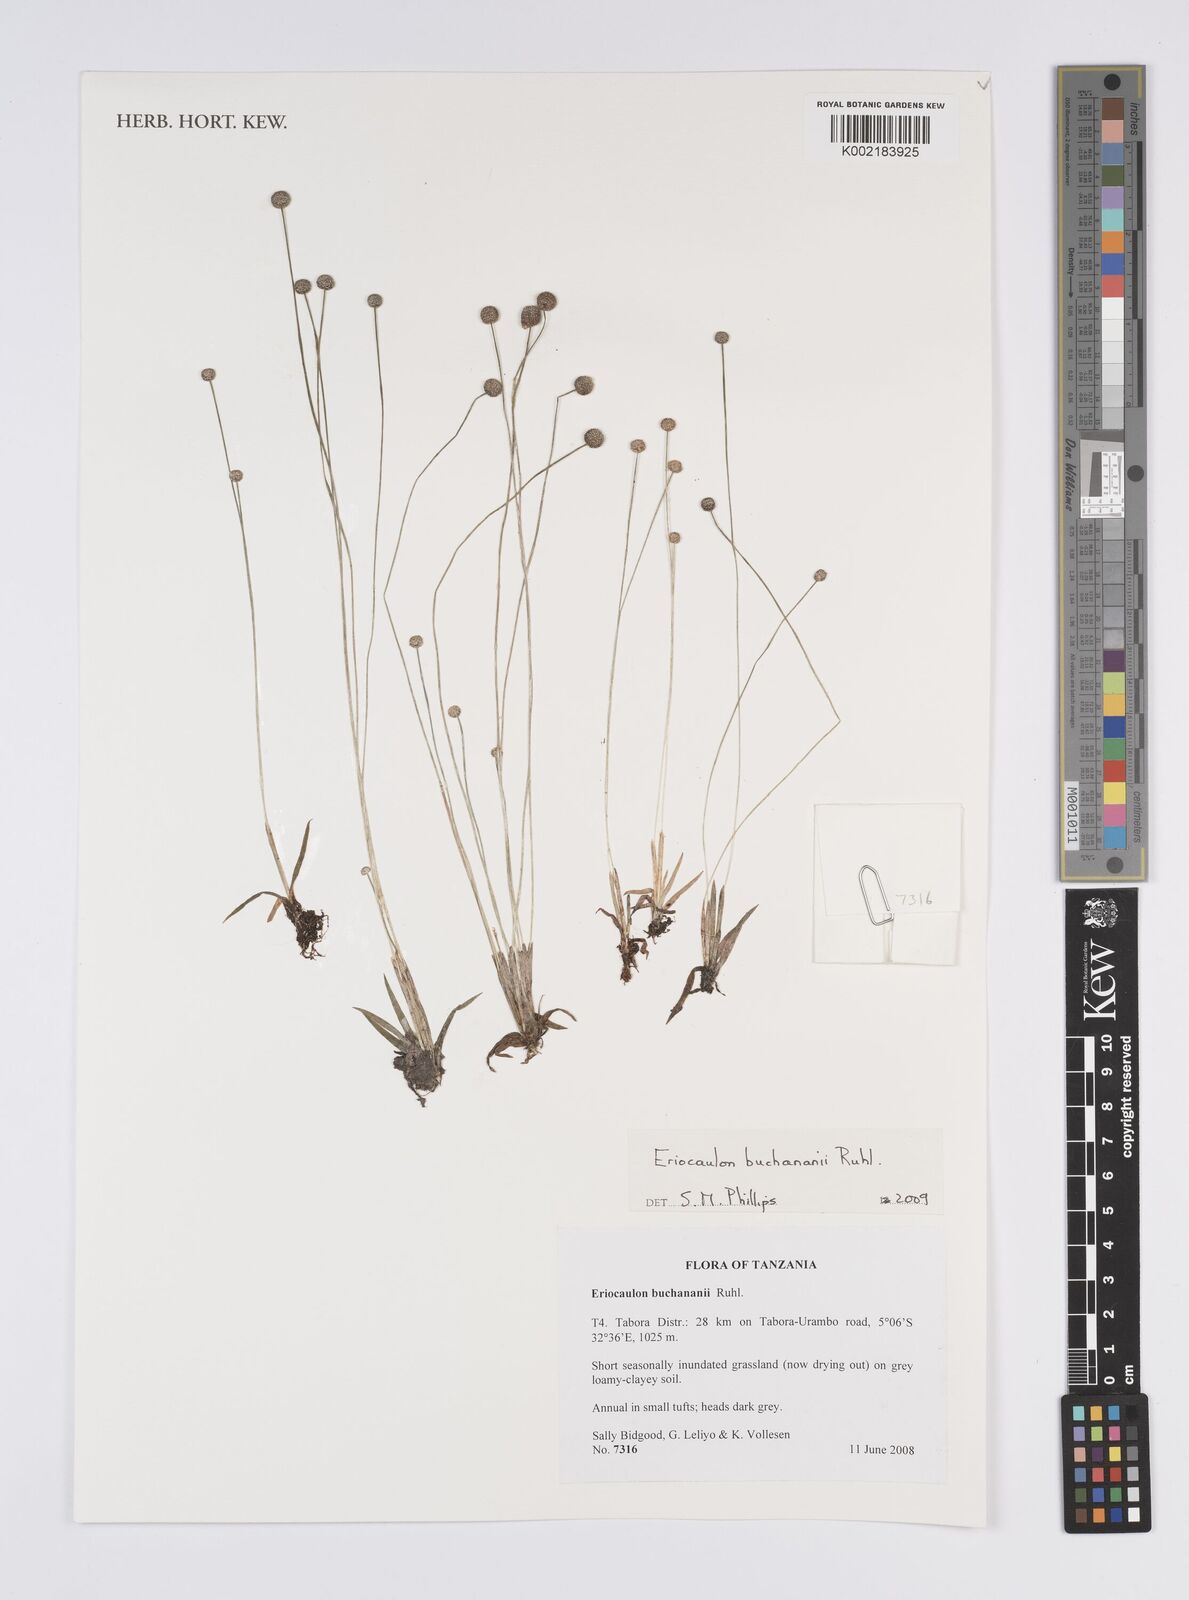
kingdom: Plantae
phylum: Tracheophyta
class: Liliopsida
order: Poales
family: Eriocaulaceae
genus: Eriocaulon
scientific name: Eriocaulon buchananii
